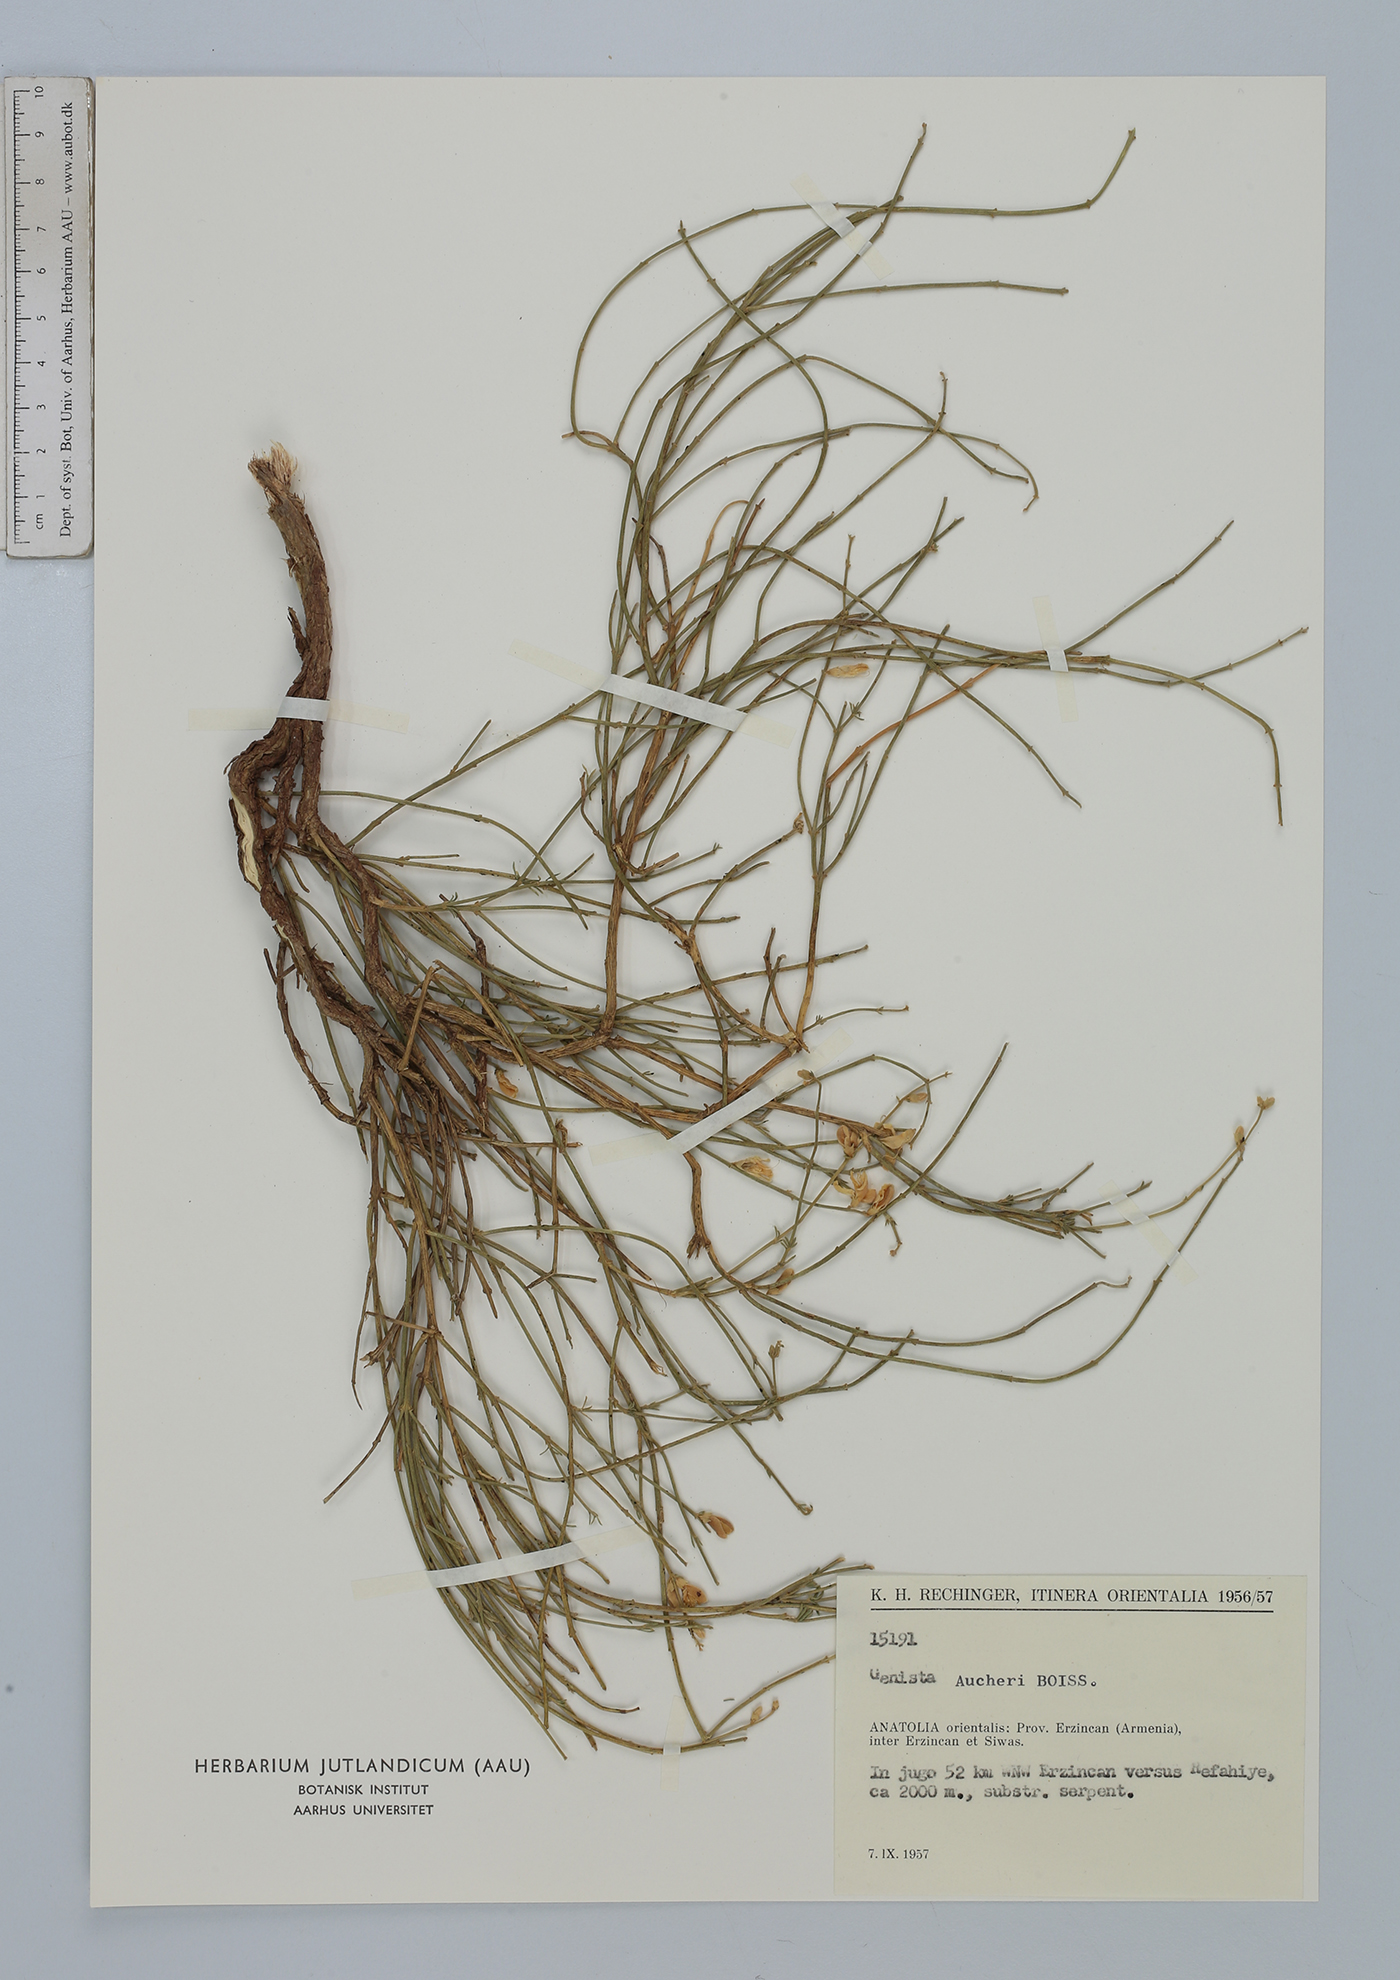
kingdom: Plantae
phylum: Tracheophyta
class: Magnoliopsida
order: Fabales
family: Fabaceae
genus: Genista
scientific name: Genista aucheri
